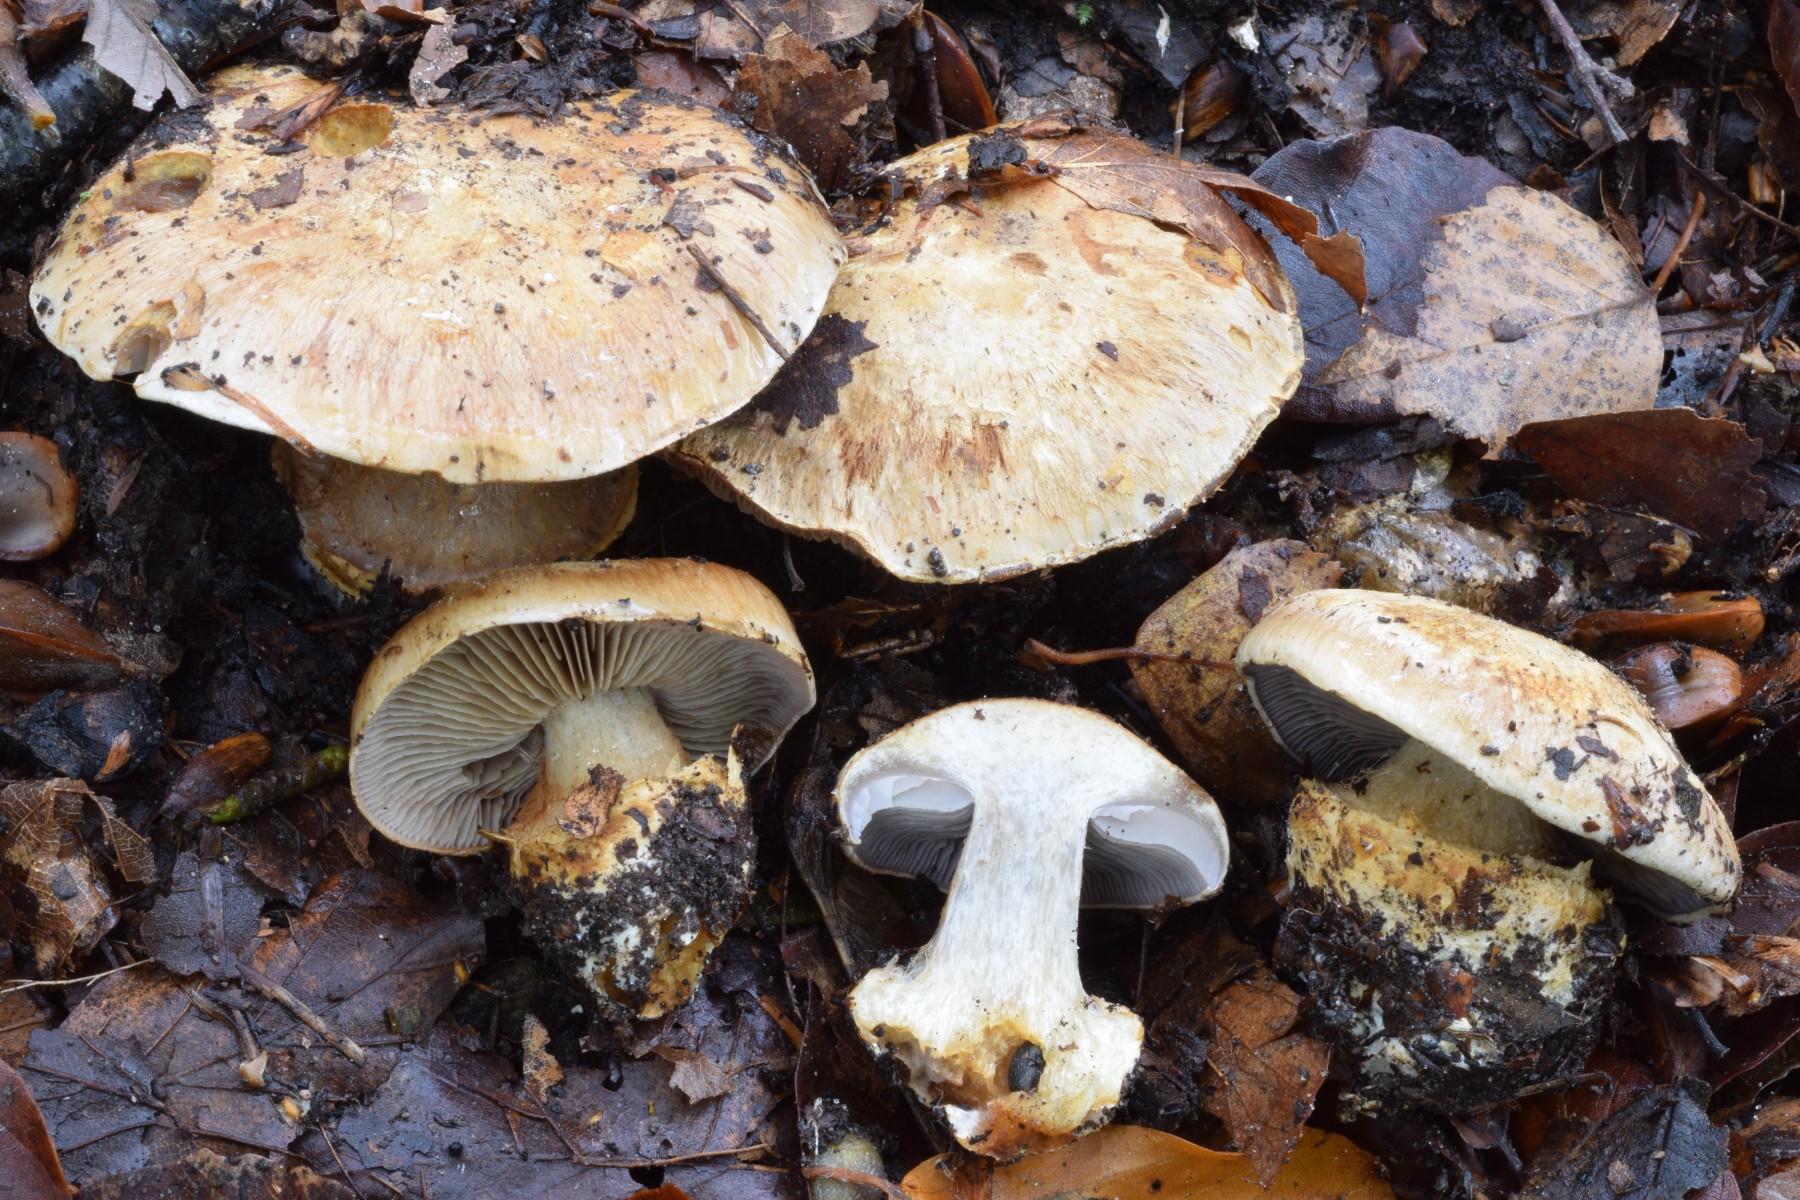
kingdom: Fungi
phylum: Basidiomycota
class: Agaricomycetes
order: Agaricales
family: Cortinariaceae
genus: Phlegmacium
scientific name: Phlegmacium luhmannii
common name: musegrå slørhat
